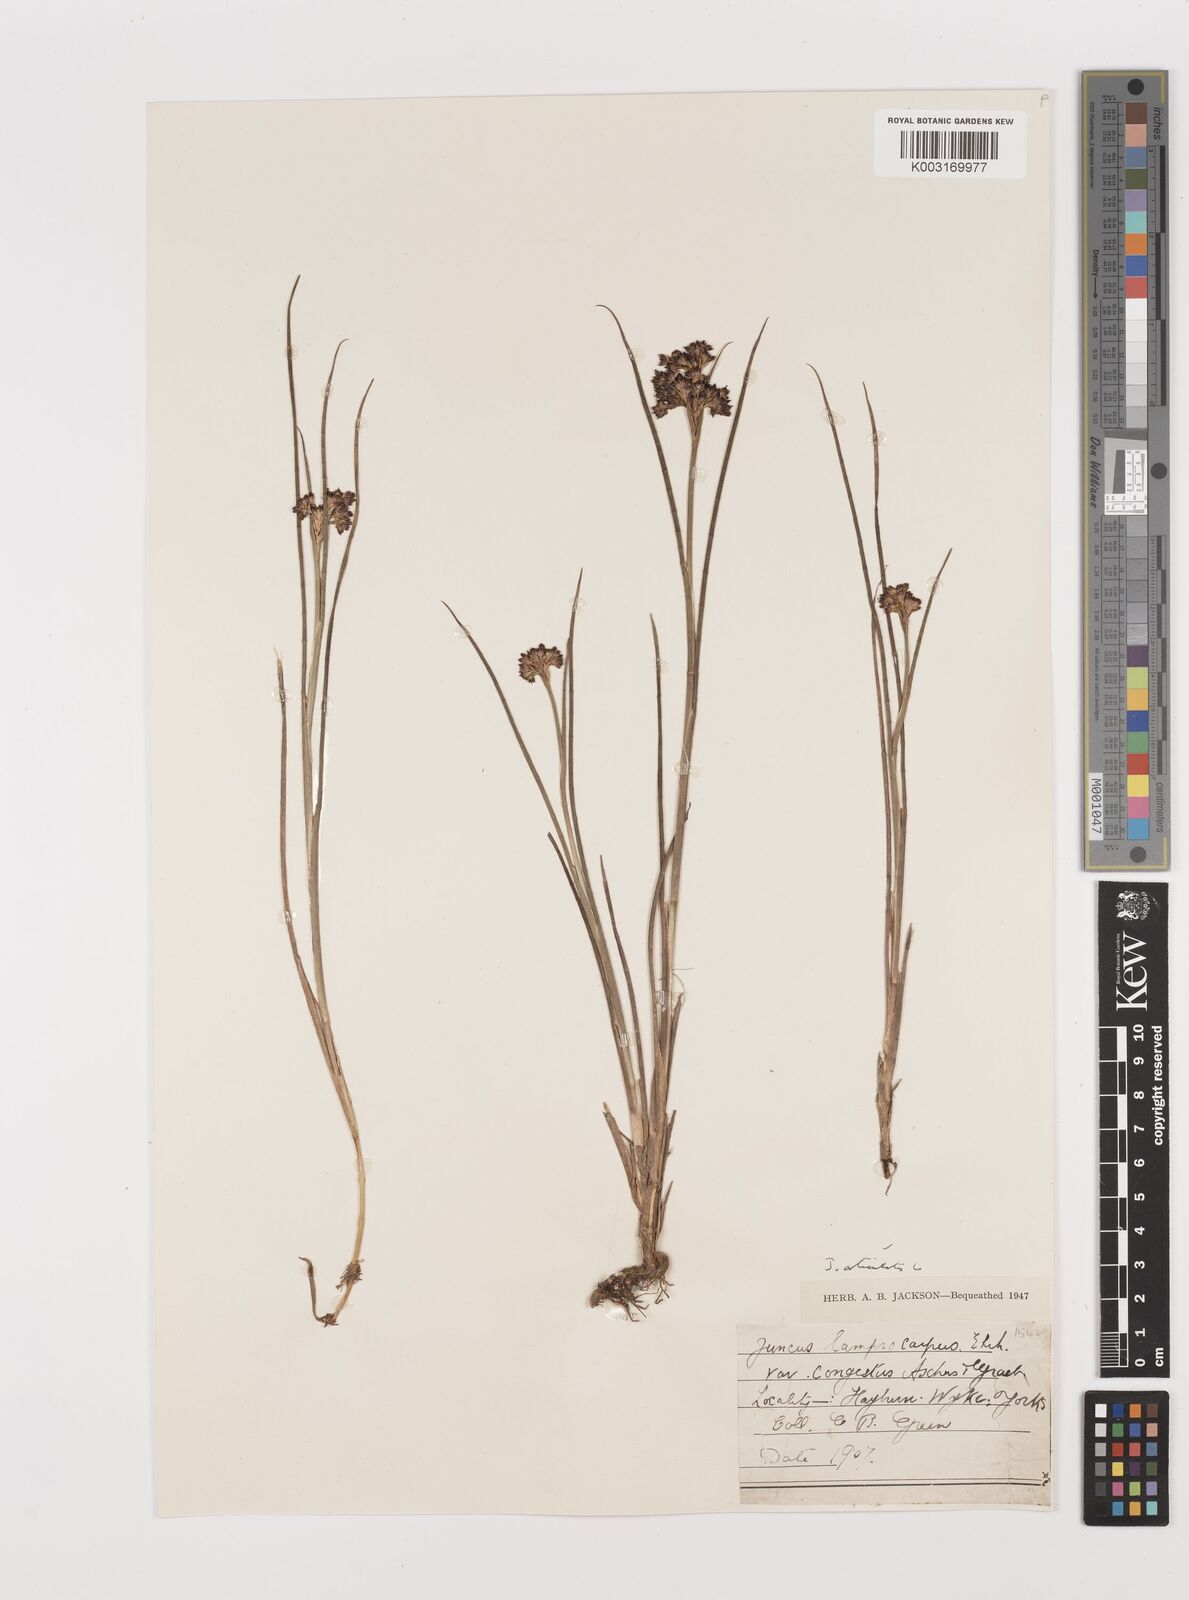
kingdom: Plantae
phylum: Tracheophyta
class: Liliopsida
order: Poales
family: Juncaceae
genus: Juncus
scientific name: Juncus articulatus
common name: Jointed rush
